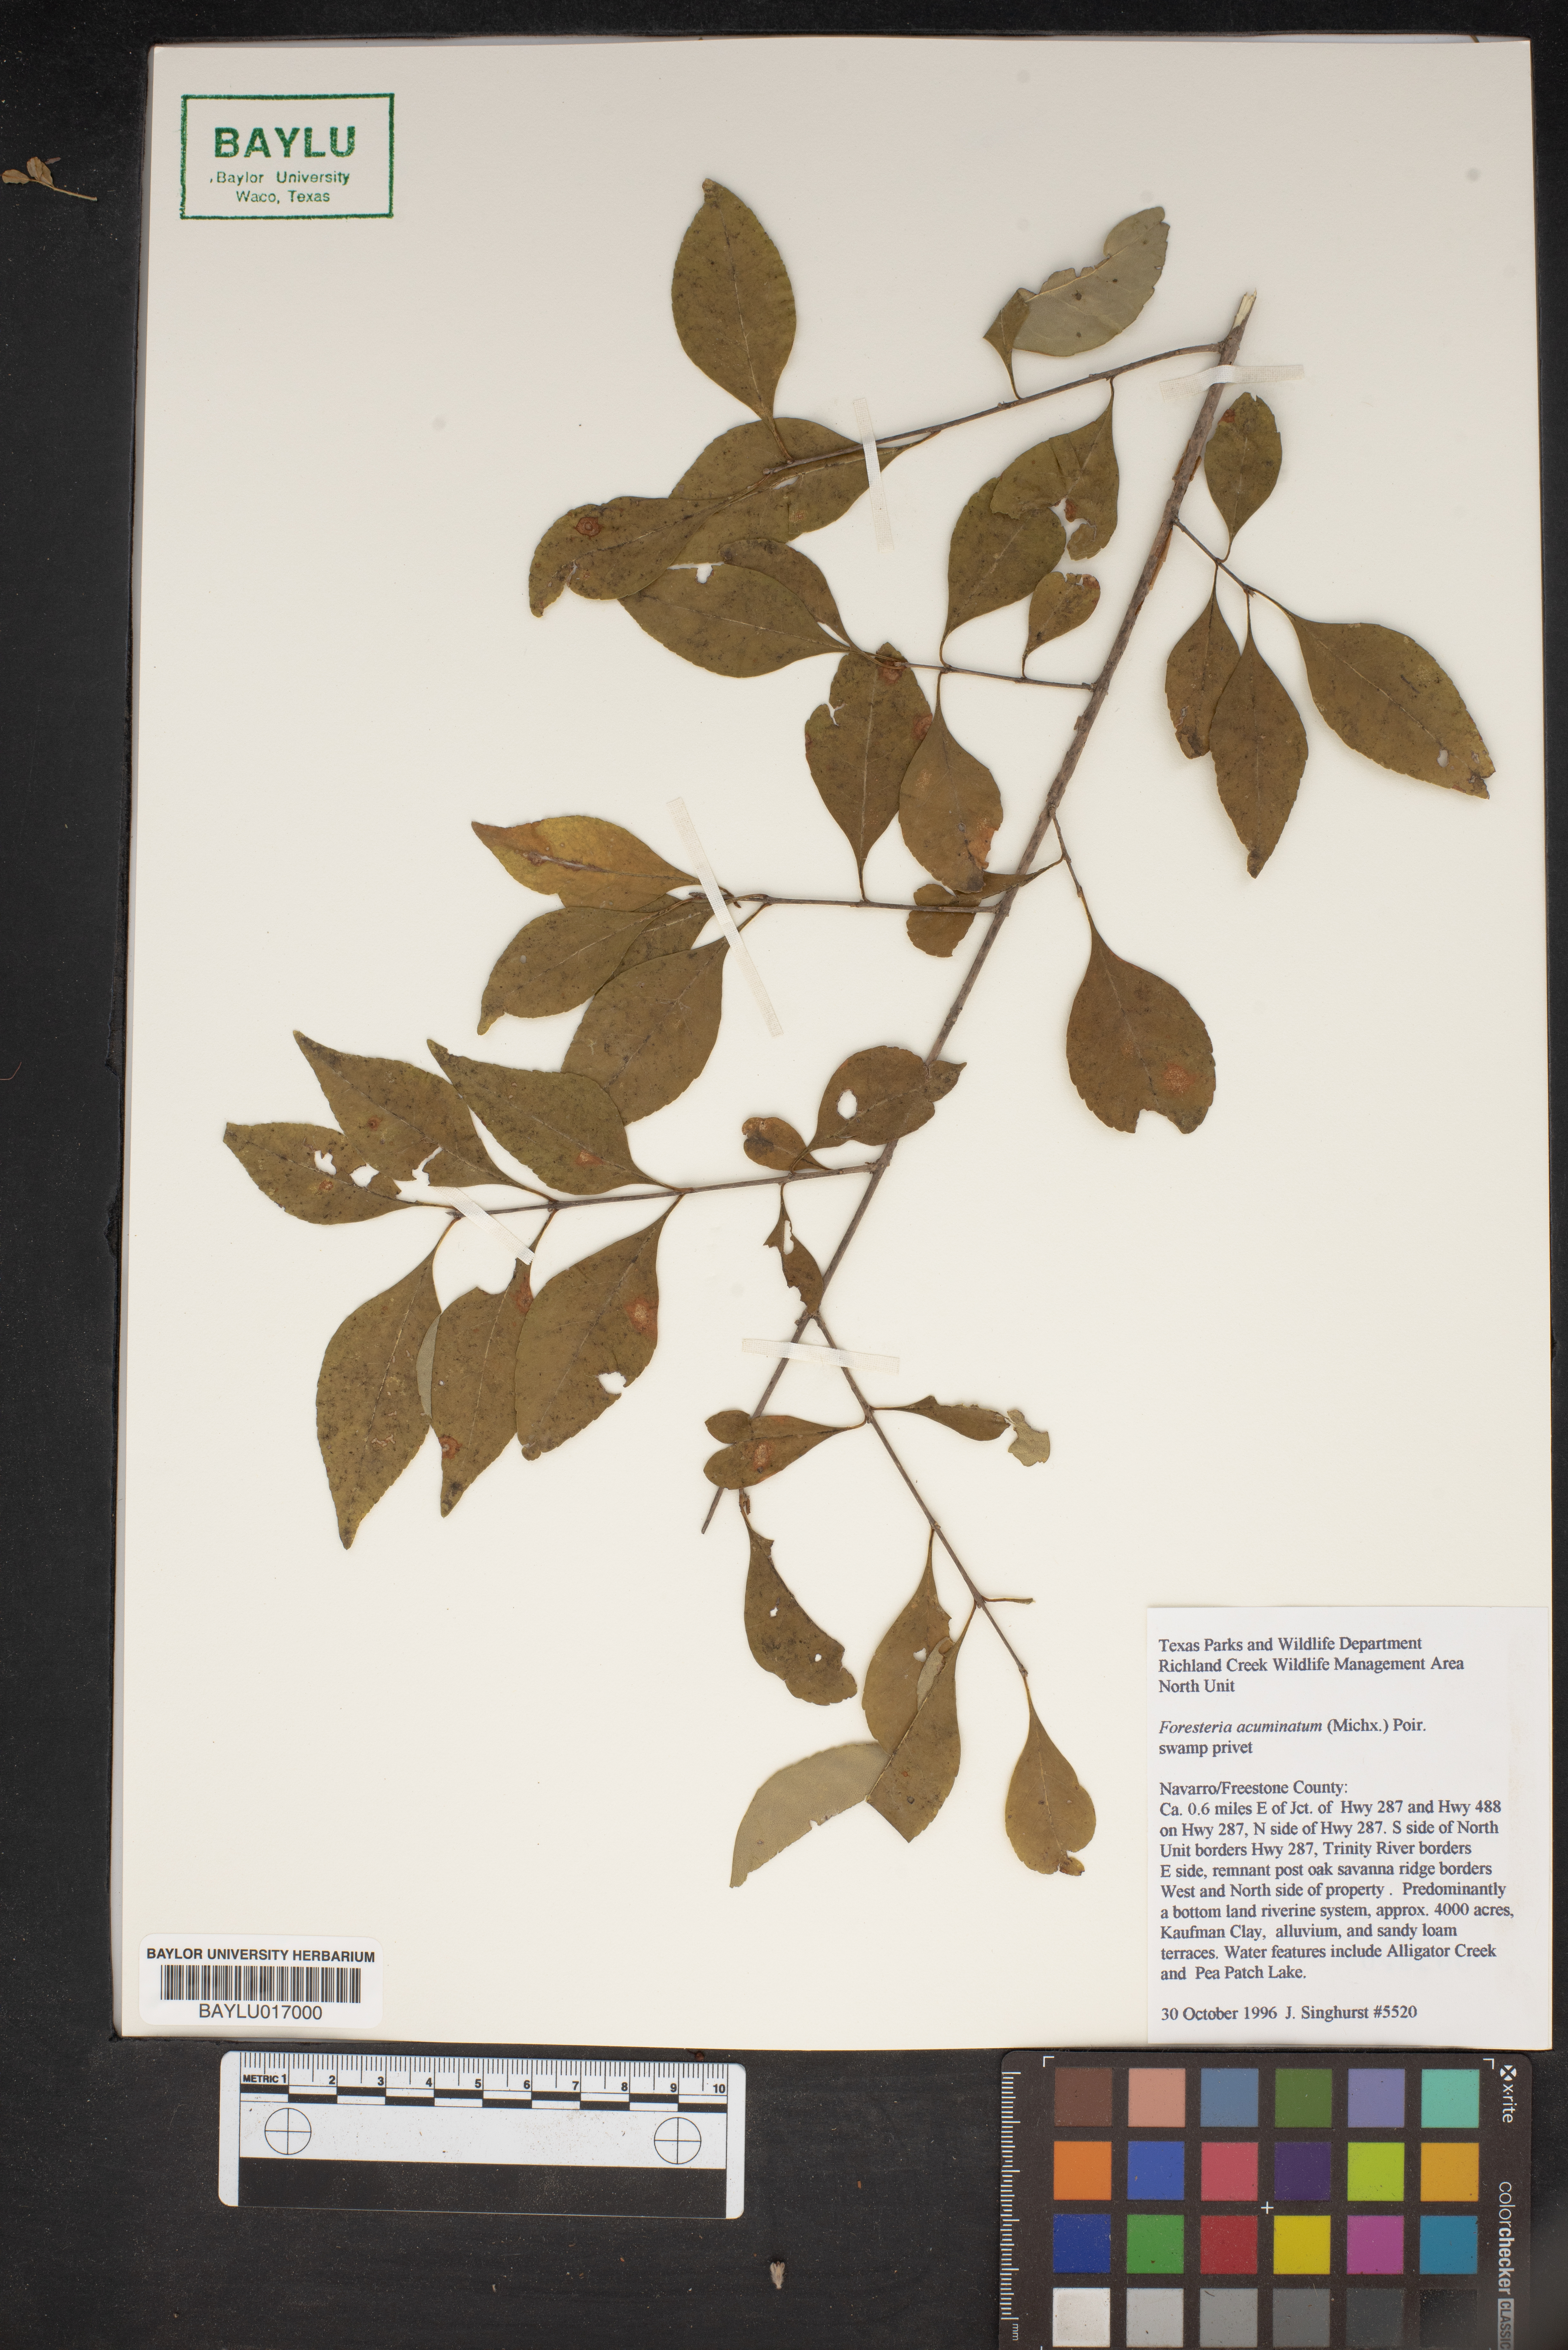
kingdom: Plantae
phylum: Tracheophyta
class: Magnoliopsida
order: Lamiales
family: Oleaceae
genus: Forestiera
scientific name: Forestiera acuminata
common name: Swamp-privet
